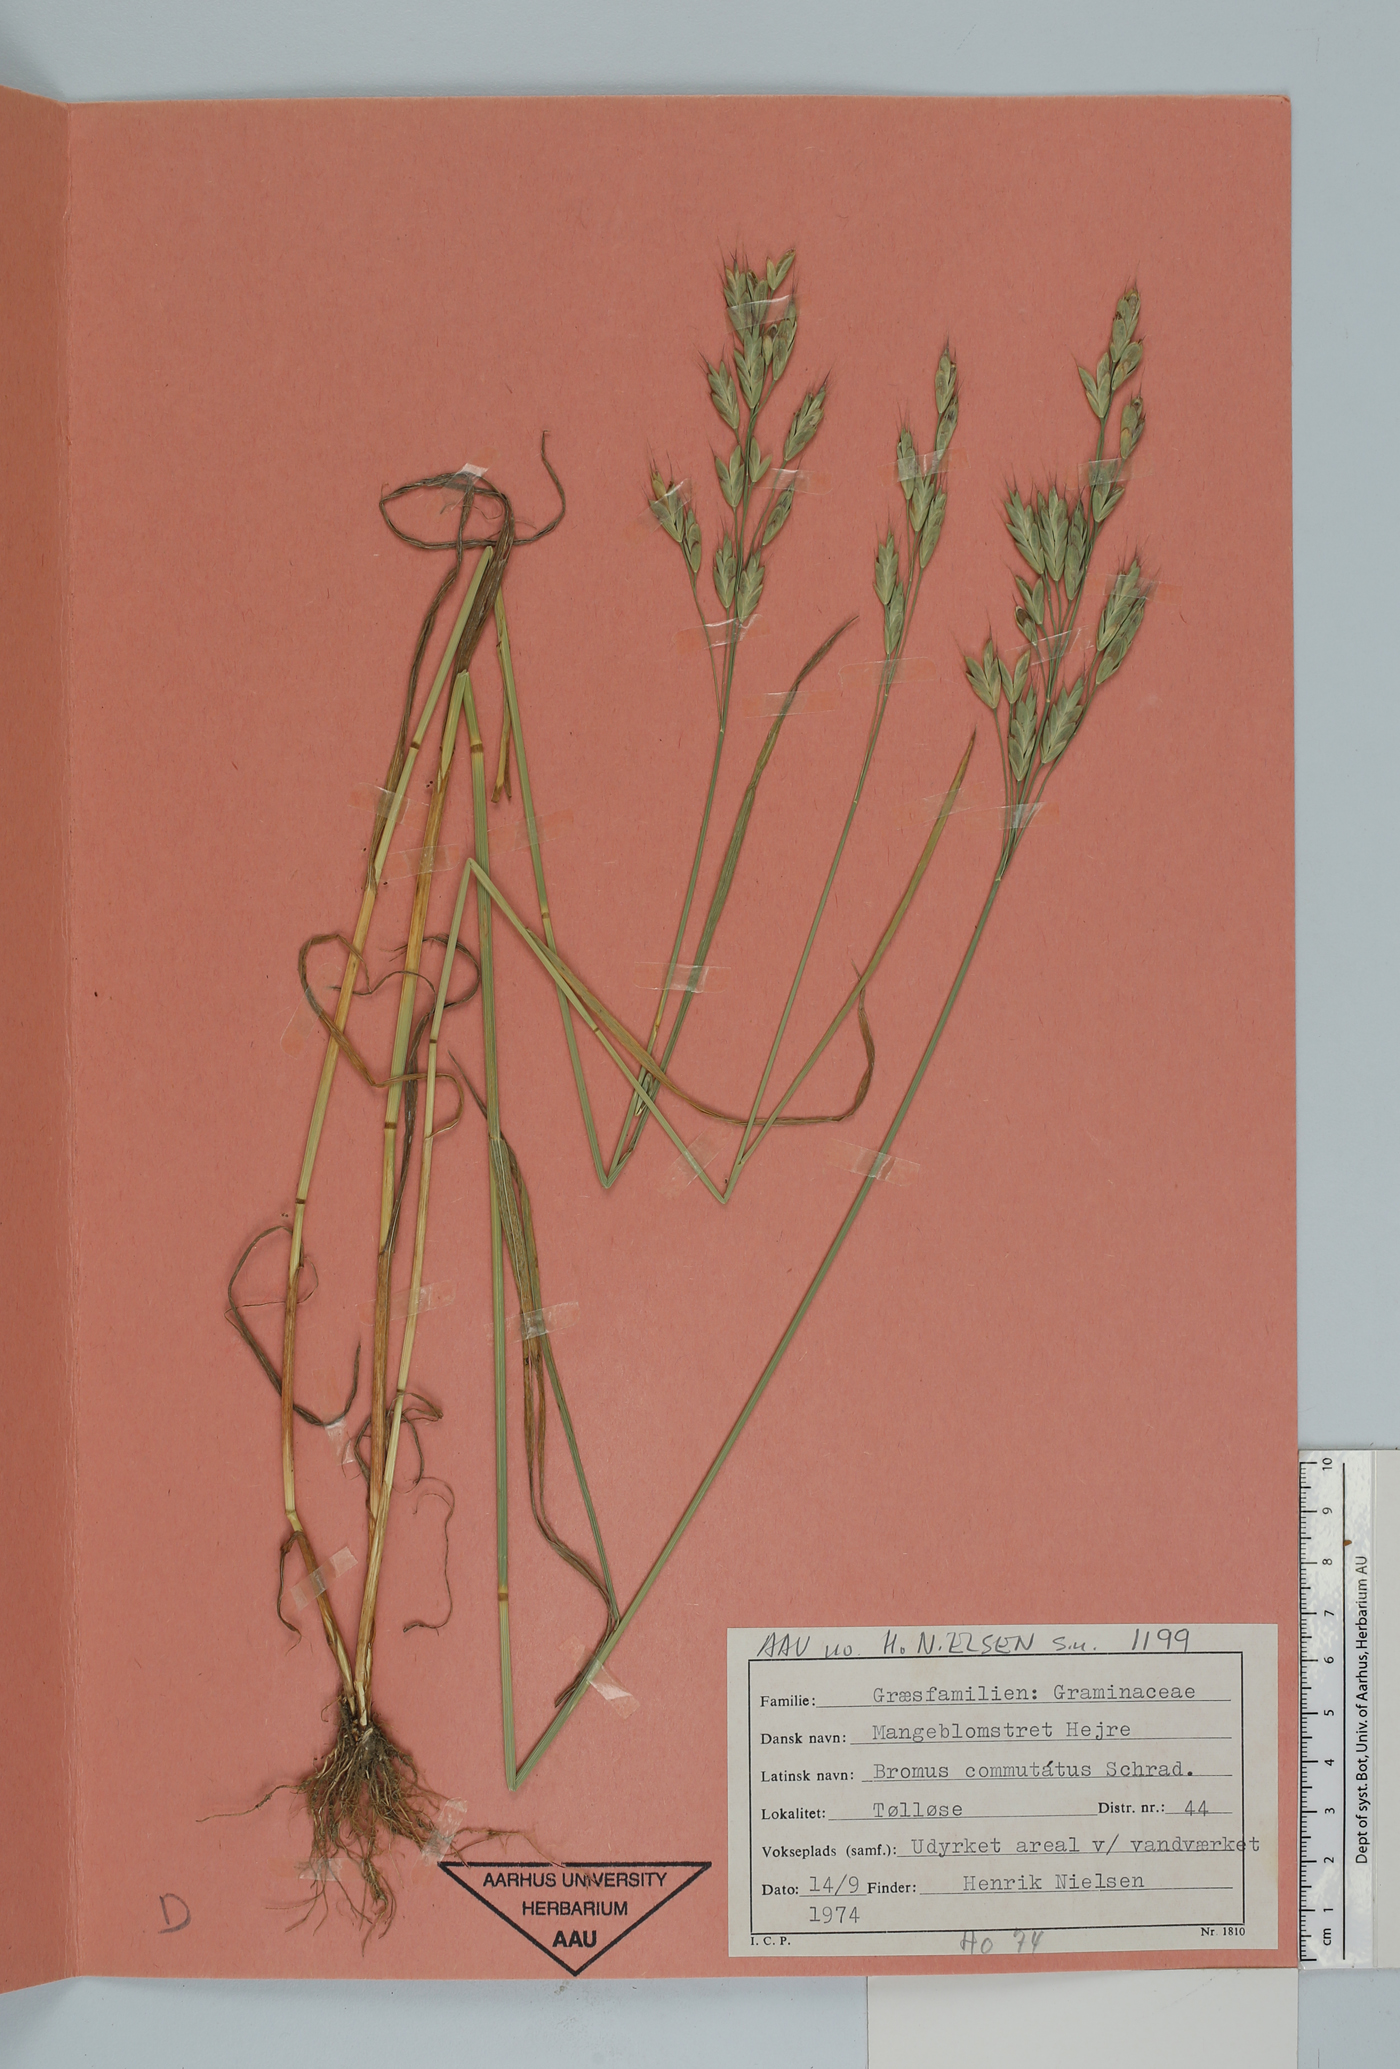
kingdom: Plantae
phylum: Tracheophyta
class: Liliopsida
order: Poales
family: Poaceae
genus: Bromus
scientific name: Bromus commutatus
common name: Meadow brome
